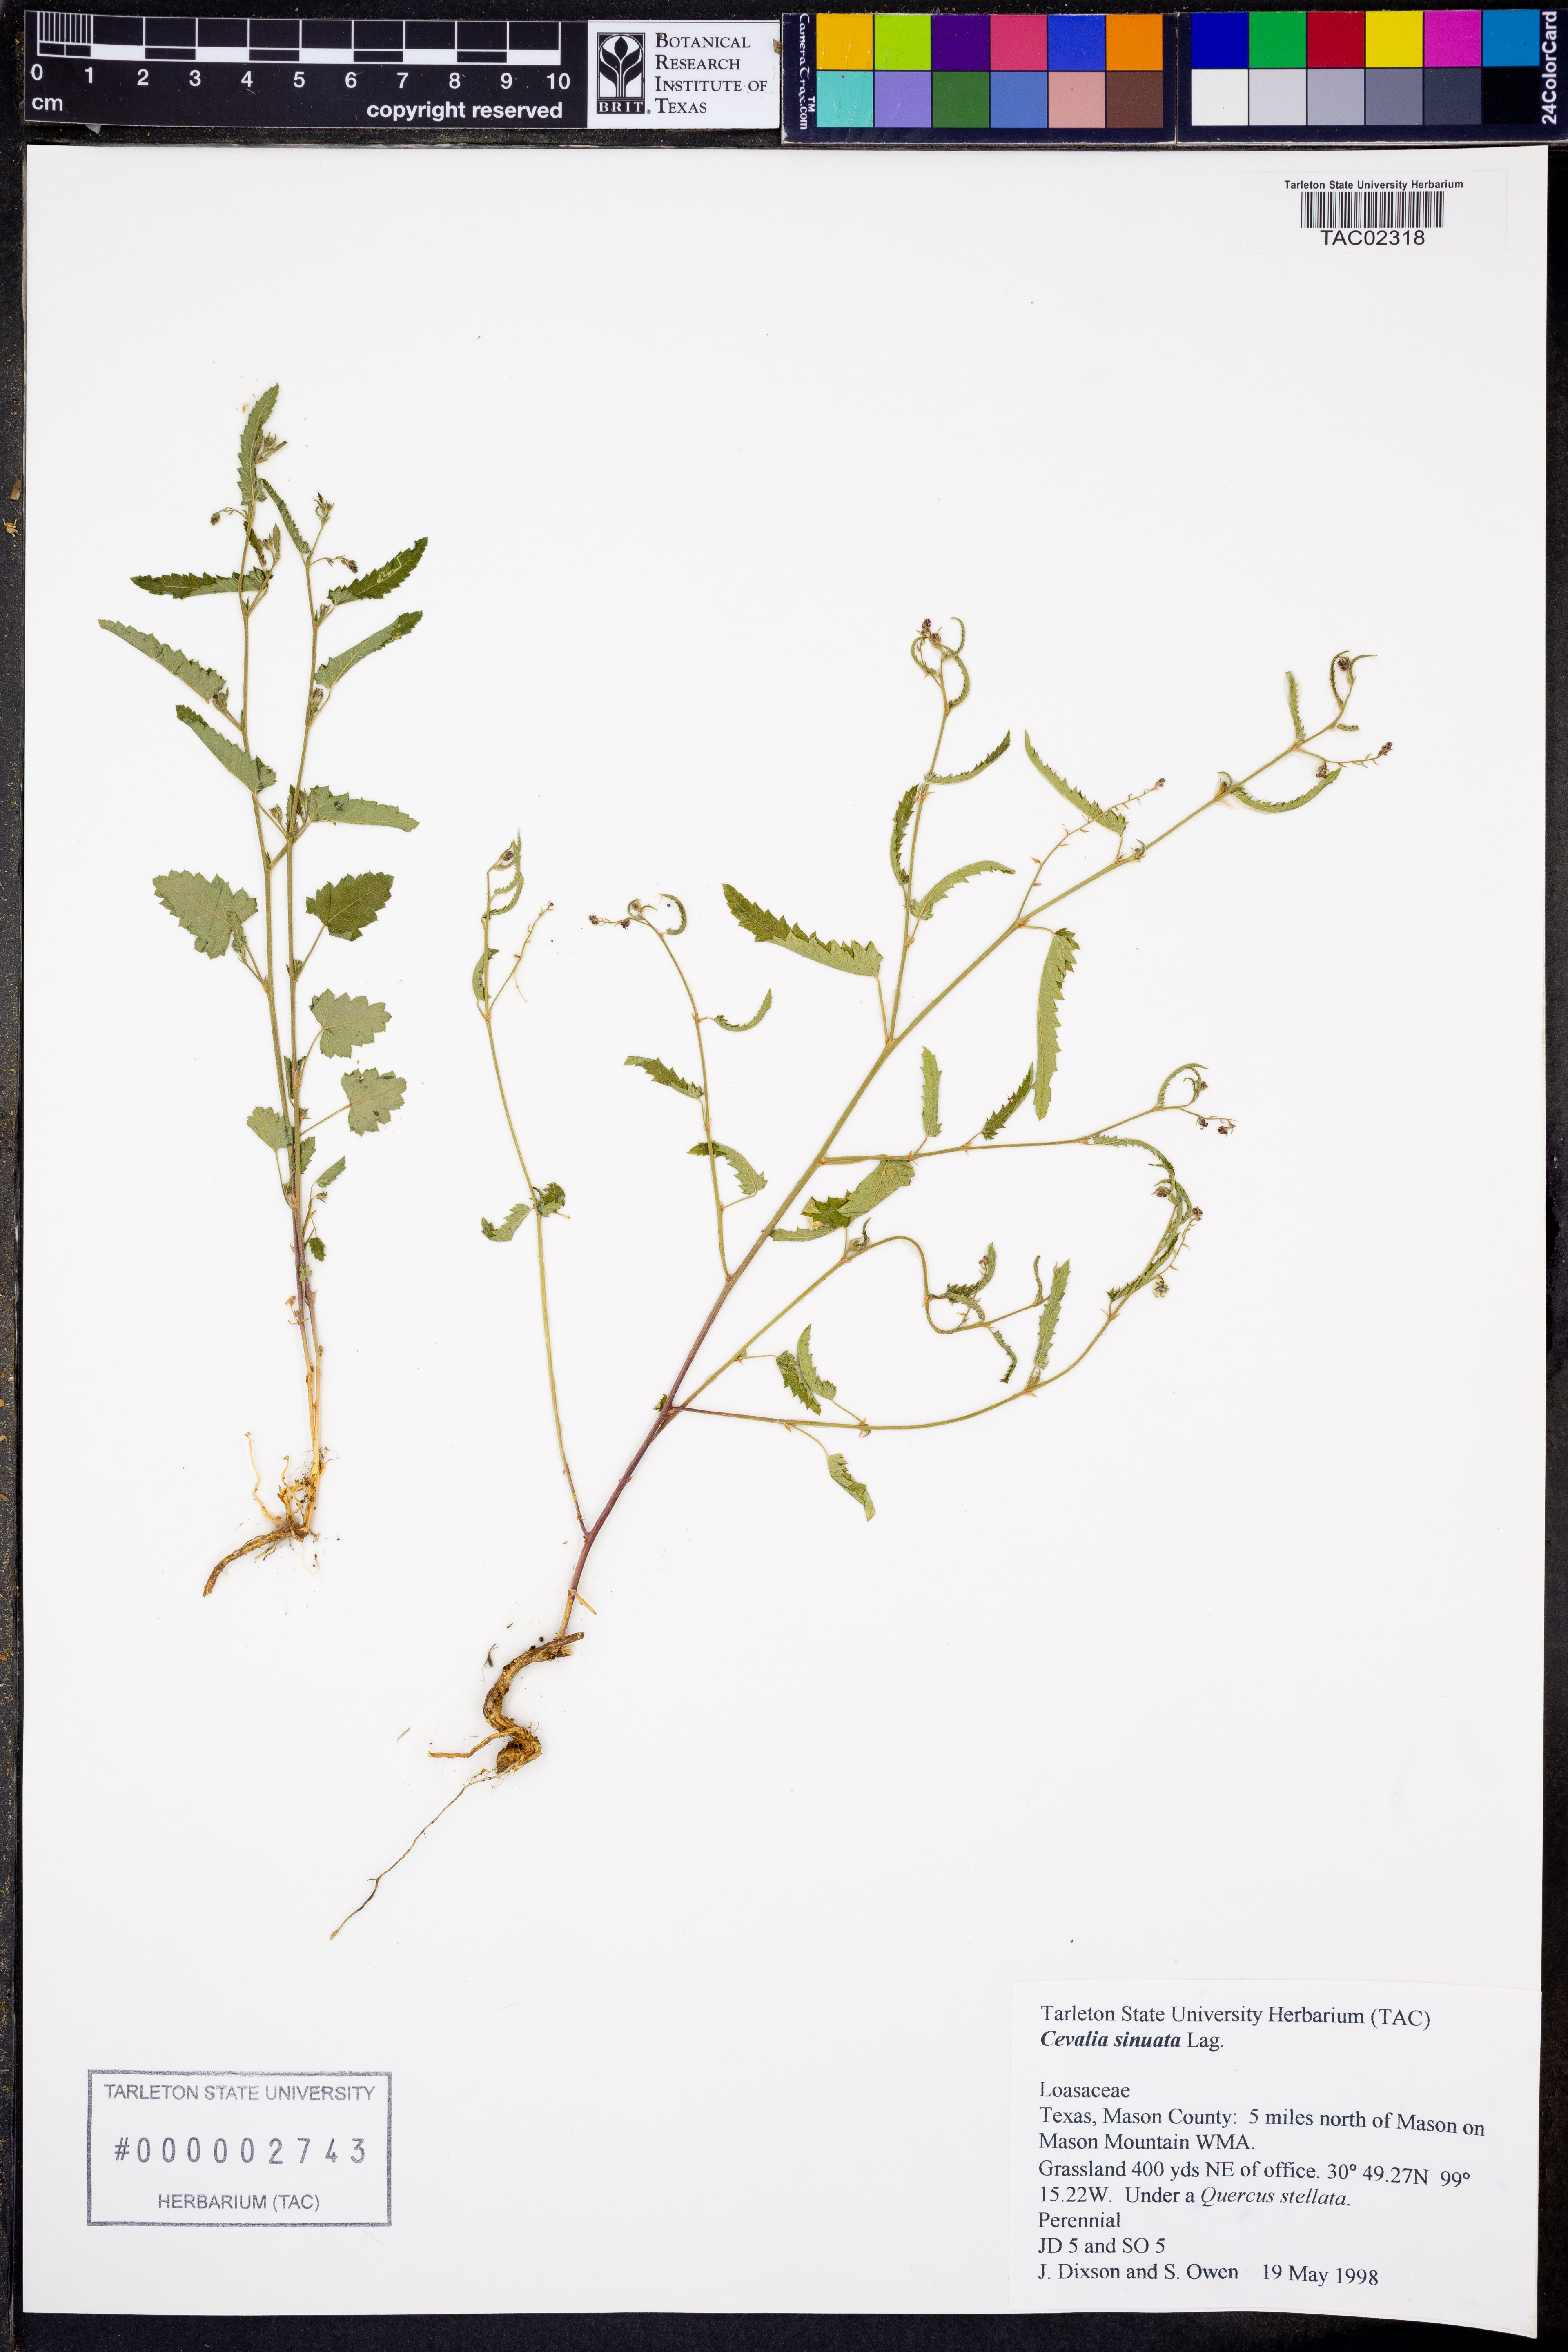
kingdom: Plantae
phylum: Tracheophyta
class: Magnoliopsida
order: Cornales
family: Loasaceae
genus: Cevallia
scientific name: Cevallia sinuata
